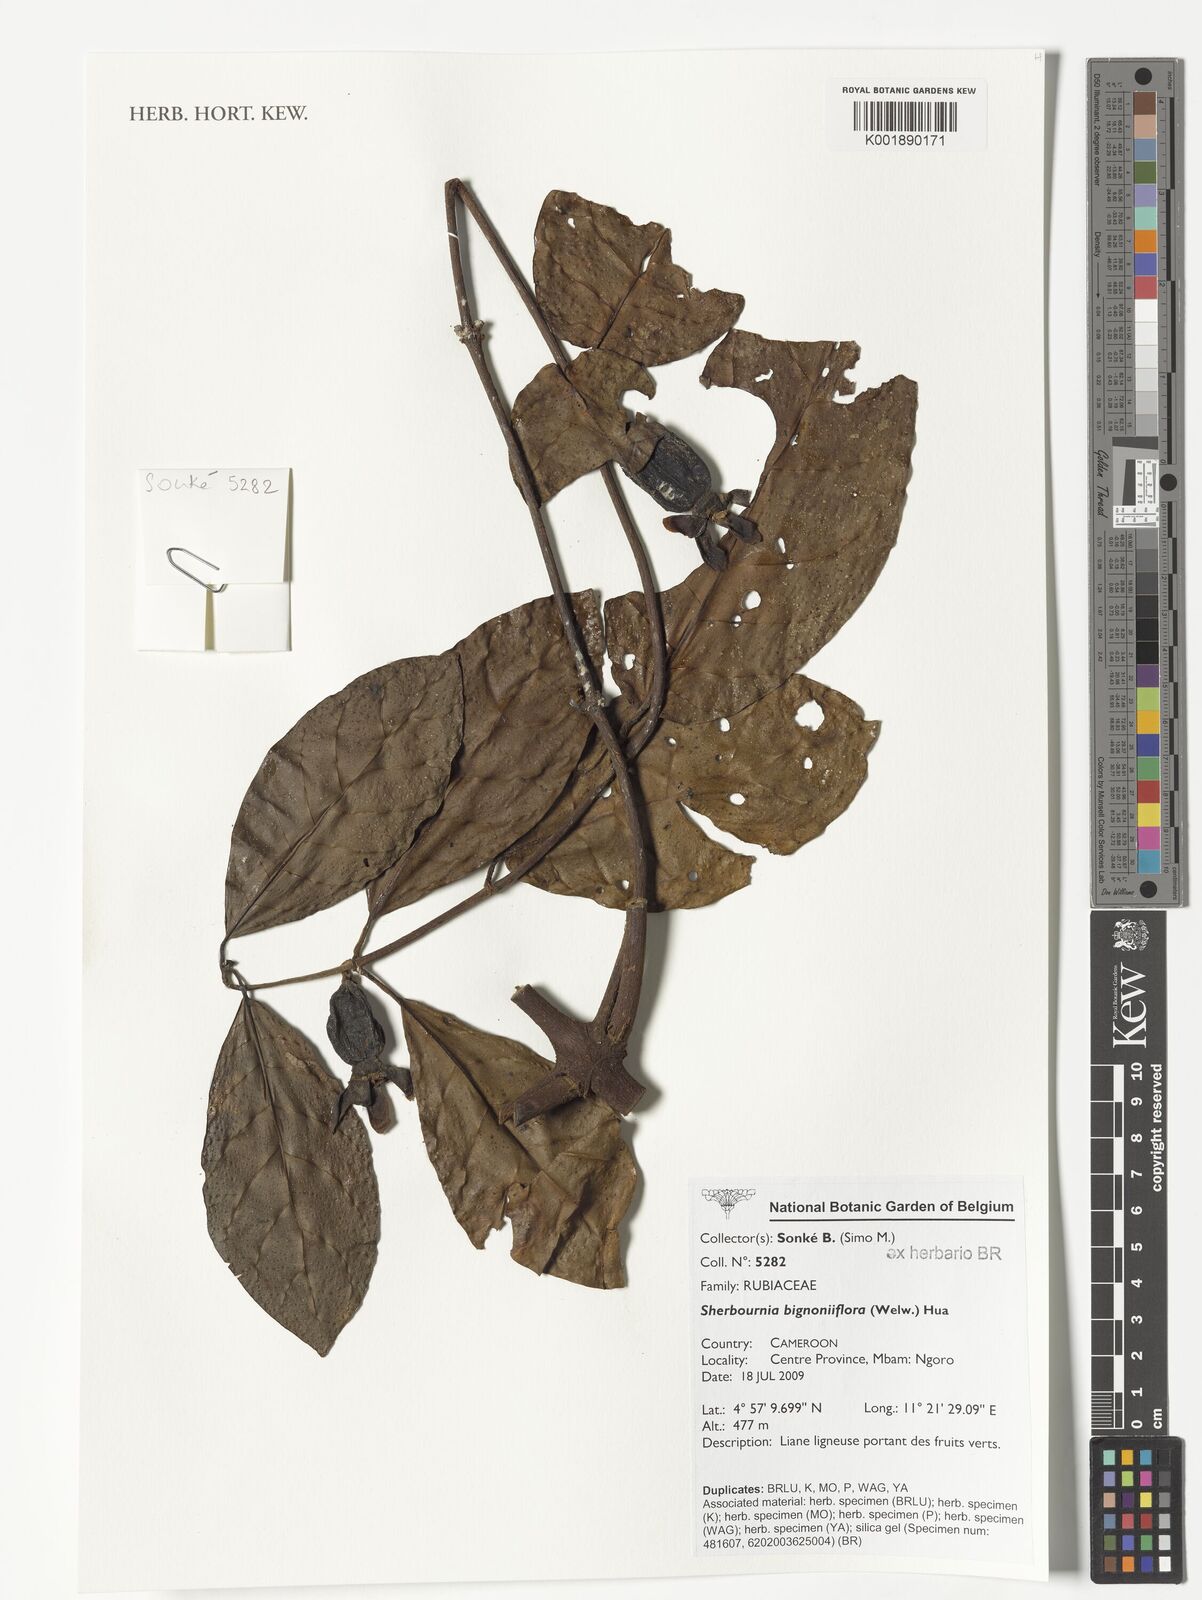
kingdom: Plantae
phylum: Tracheophyta
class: Magnoliopsida
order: Gentianales
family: Rubiaceae
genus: Sherbournia
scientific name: Sherbournia bignoniiflora
